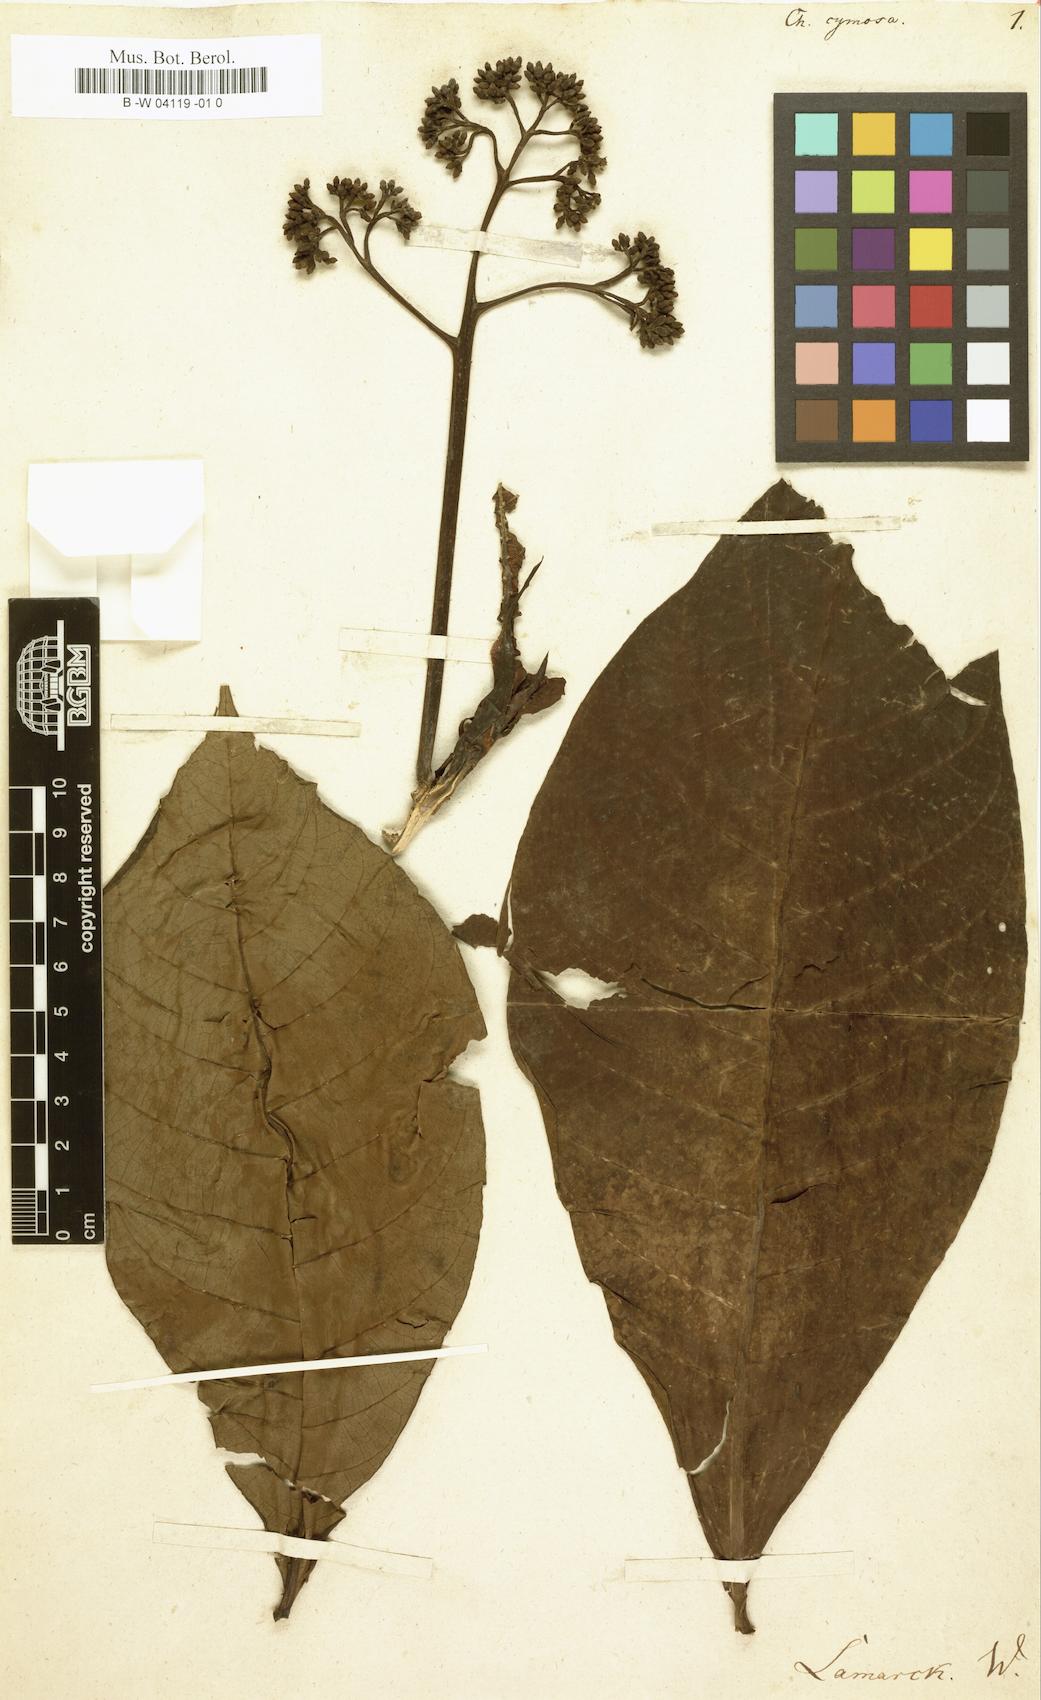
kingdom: Plantae
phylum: Tracheophyta
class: Magnoliopsida
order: Gentianales
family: Rubiaceae
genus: Chimarrhis
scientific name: Chimarrhis cymosa
